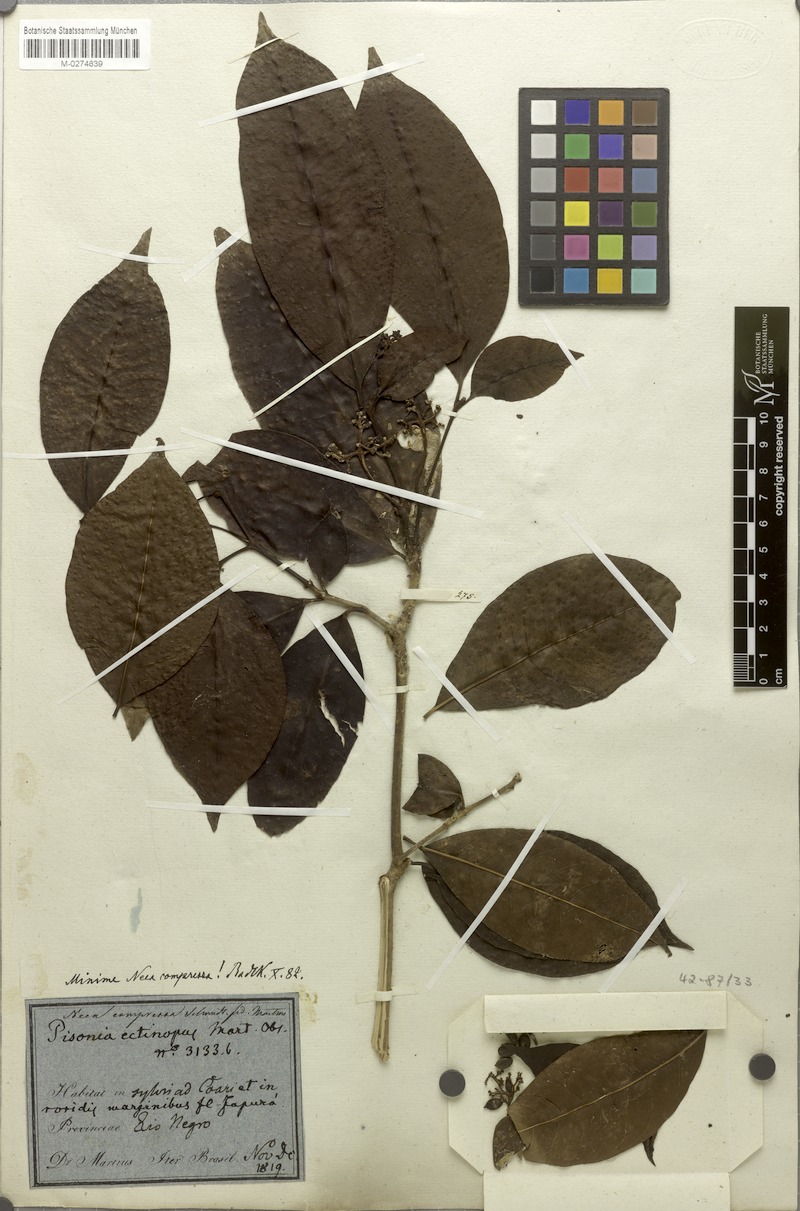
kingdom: Plantae
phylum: Tracheophyta
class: Magnoliopsida
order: Caryophyllales
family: Nyctaginaceae
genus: Neea
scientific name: Neea oppositifolia
